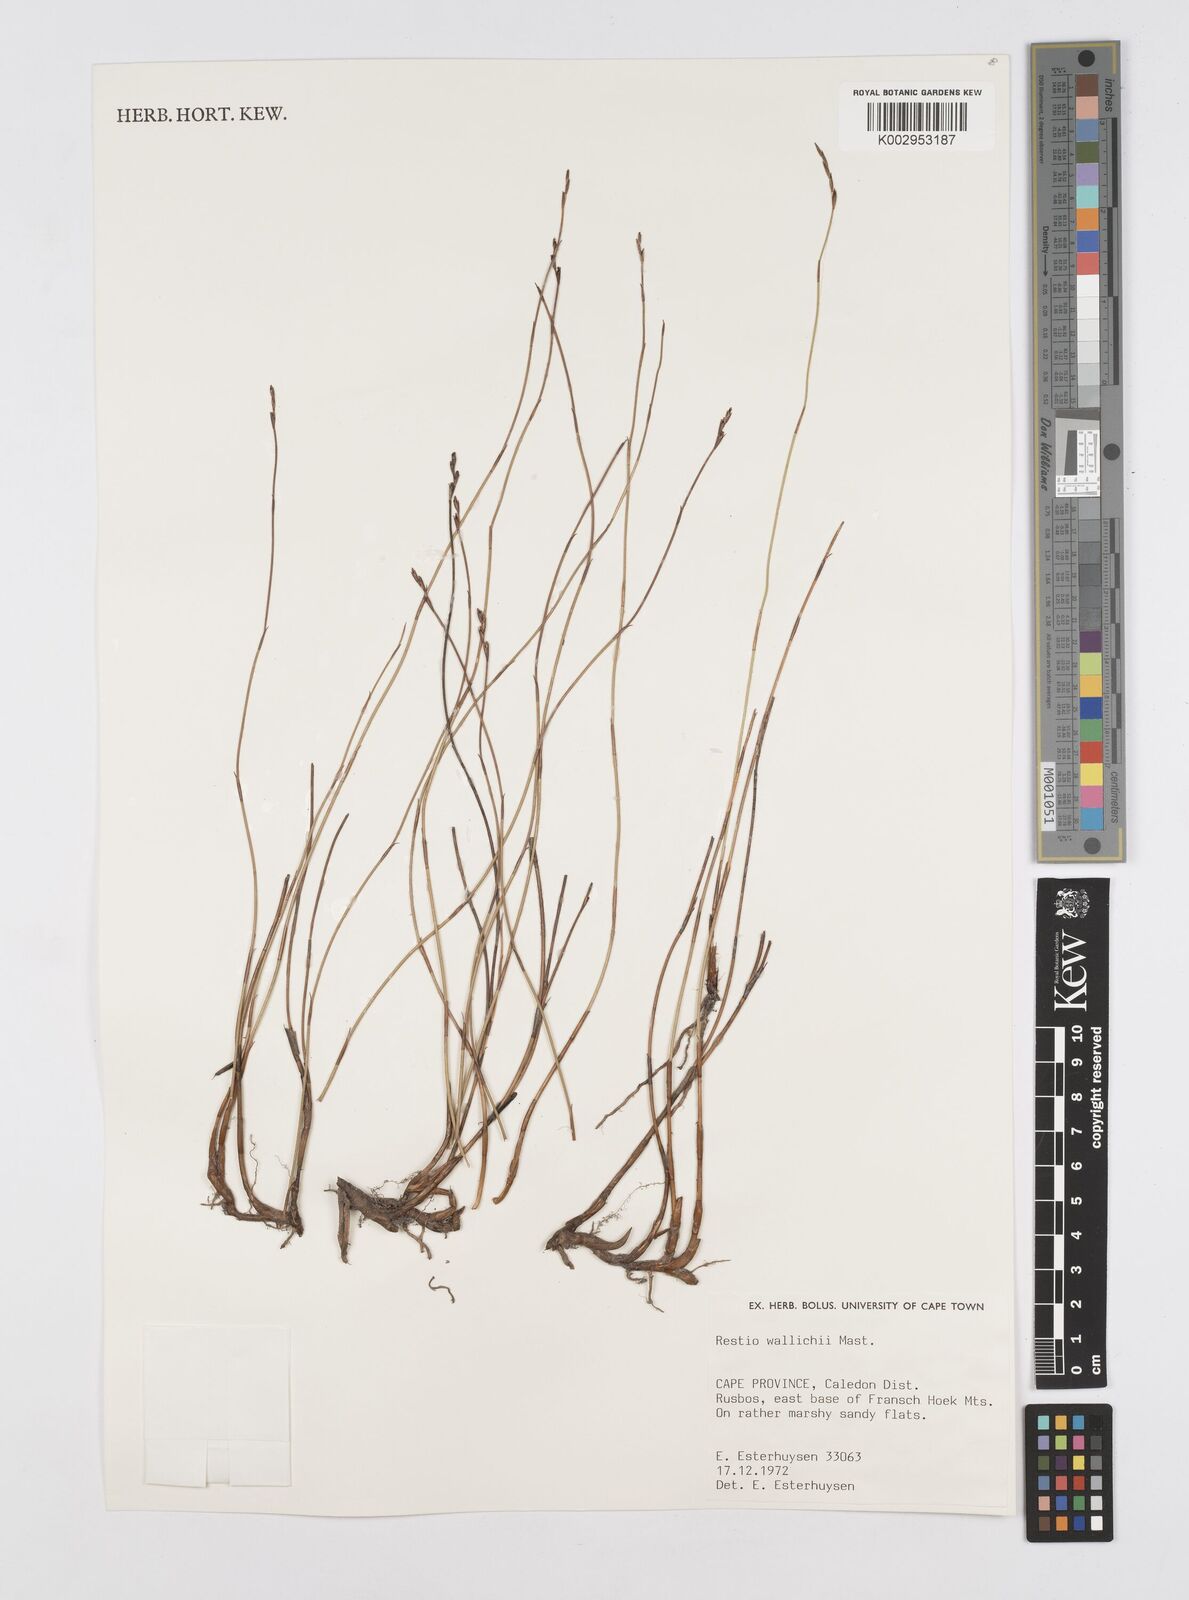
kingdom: Plantae
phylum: Tracheophyta
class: Liliopsida
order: Poales
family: Restionaceae
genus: Restio
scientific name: Restio wallichii
